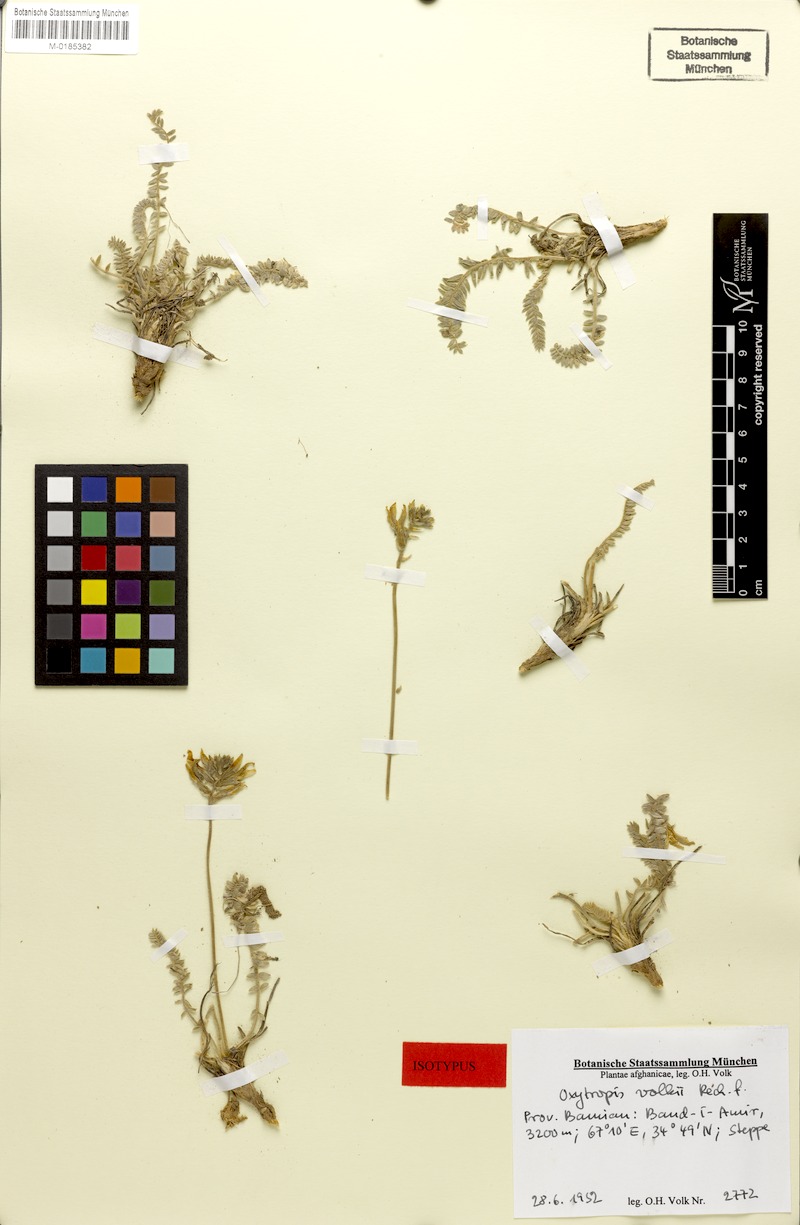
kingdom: Plantae
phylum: Tracheophyta
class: Magnoliopsida
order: Fabales
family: Fabaceae
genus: Oxytropis
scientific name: Oxytropis volkii
